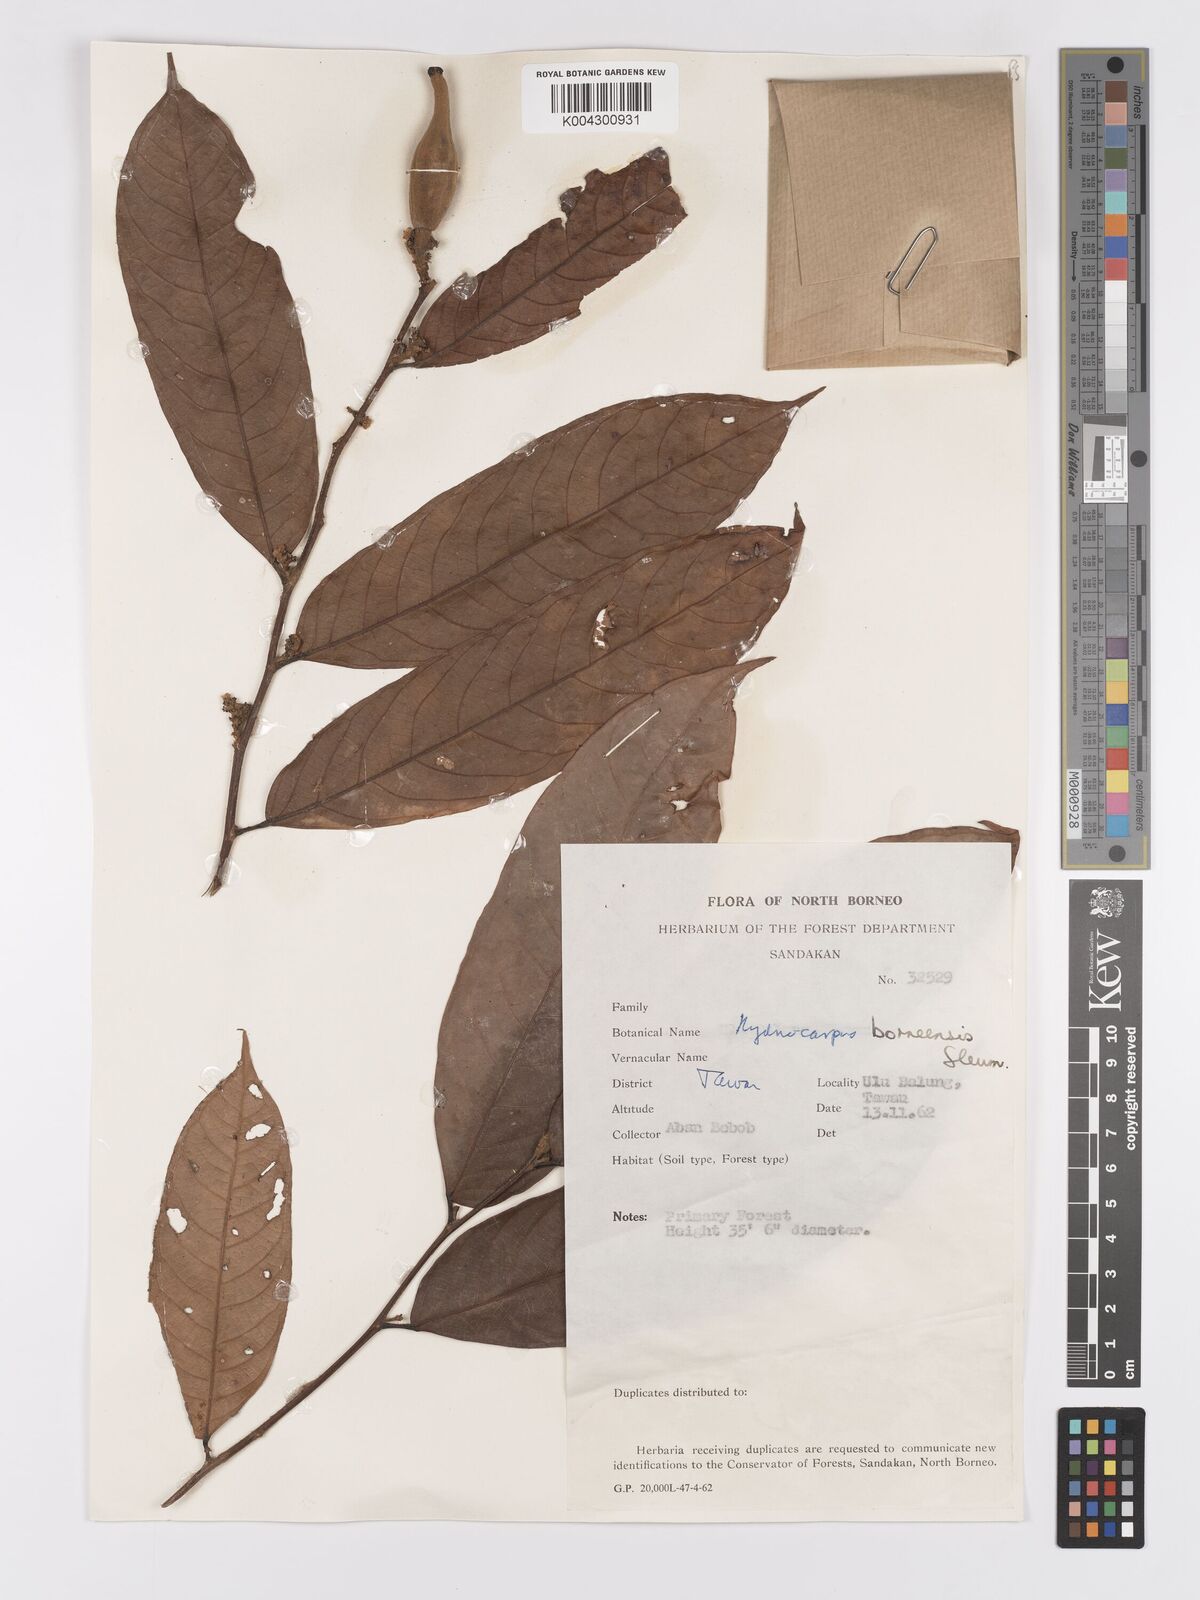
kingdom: Plantae
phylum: Tracheophyta
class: Magnoliopsida
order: Malpighiales
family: Achariaceae
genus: Hydnocarpus
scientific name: Hydnocarpus borneensis
